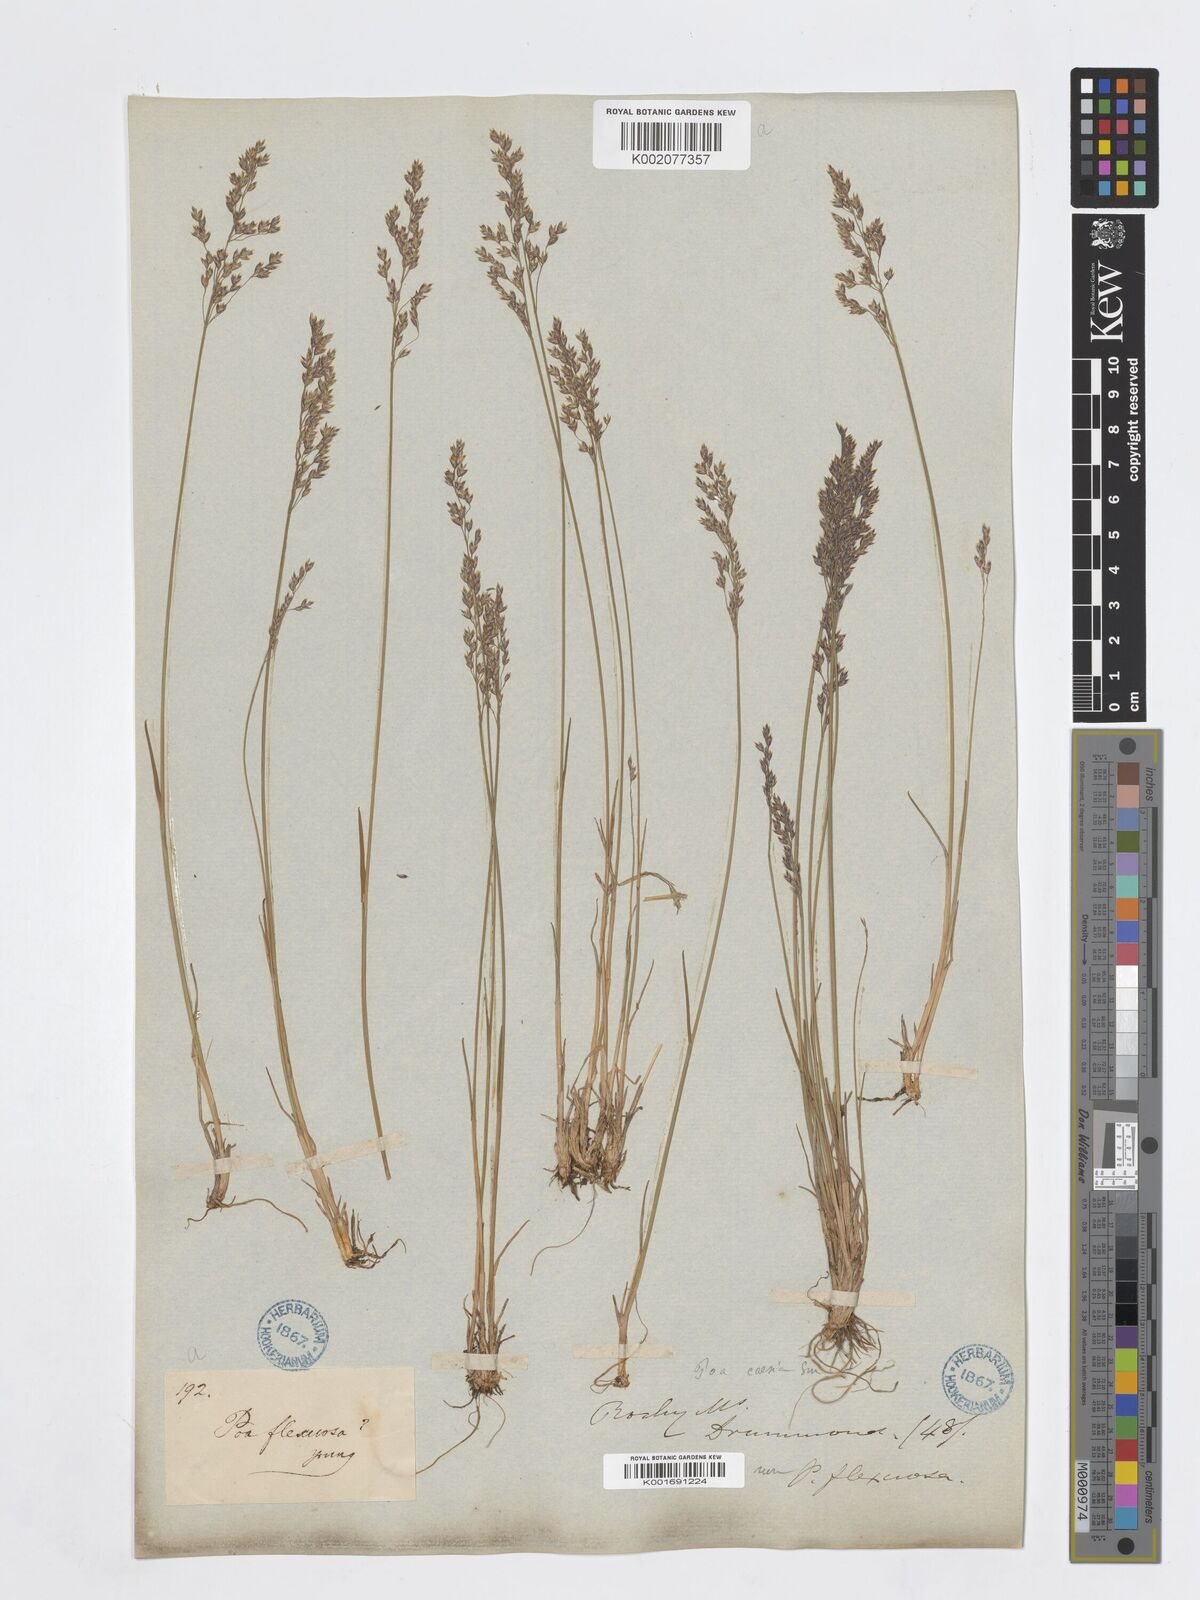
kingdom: Plantae
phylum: Tracheophyta
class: Liliopsida
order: Poales
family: Poaceae
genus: Poa
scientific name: Poa glauca
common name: Glaucous bluegrass
